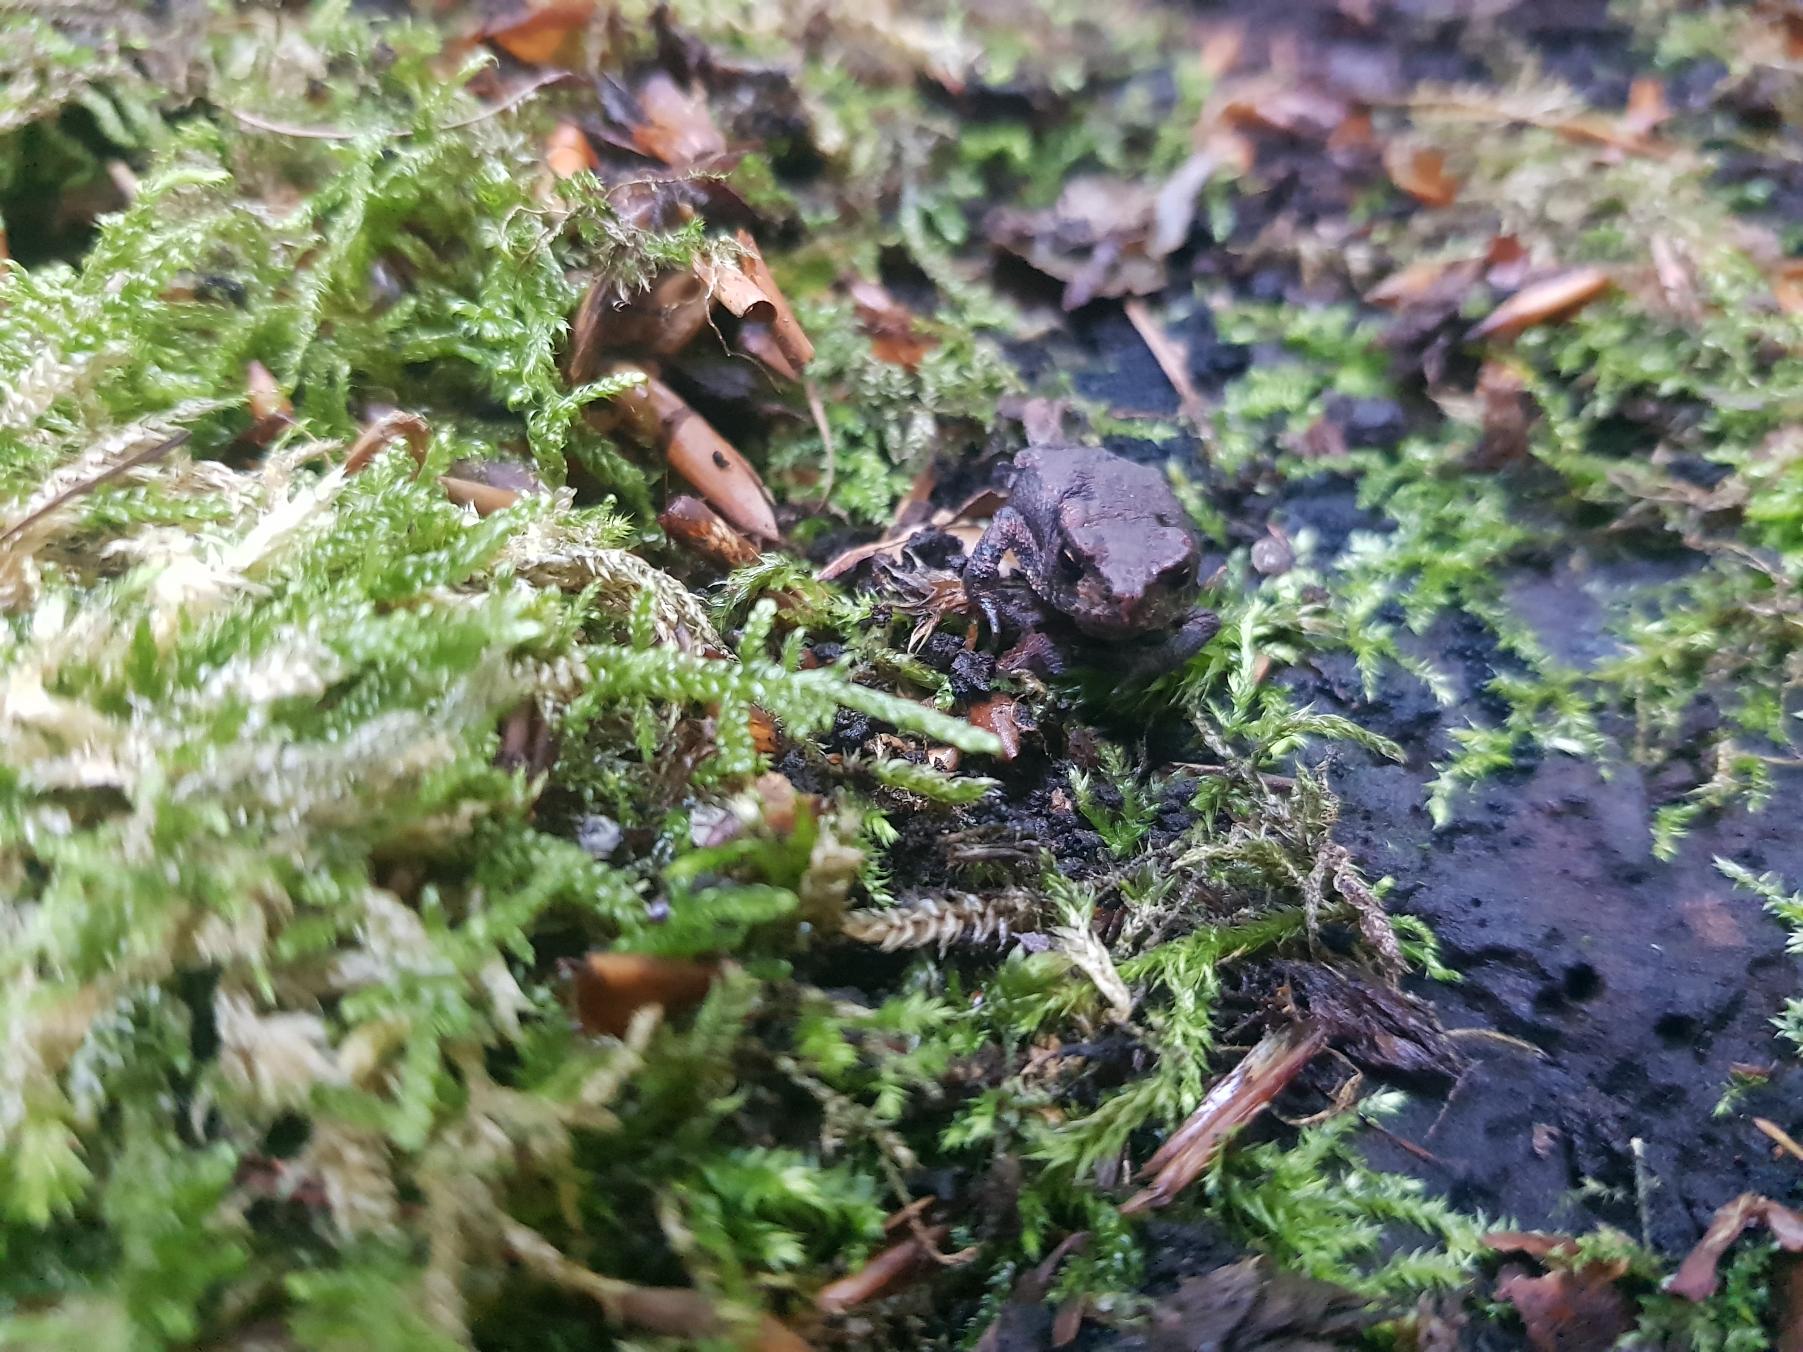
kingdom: Animalia
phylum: Chordata
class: Amphibia
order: Anura
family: Bufonidae
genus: Bufo
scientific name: Bufo bufo
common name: Skrubtudse
